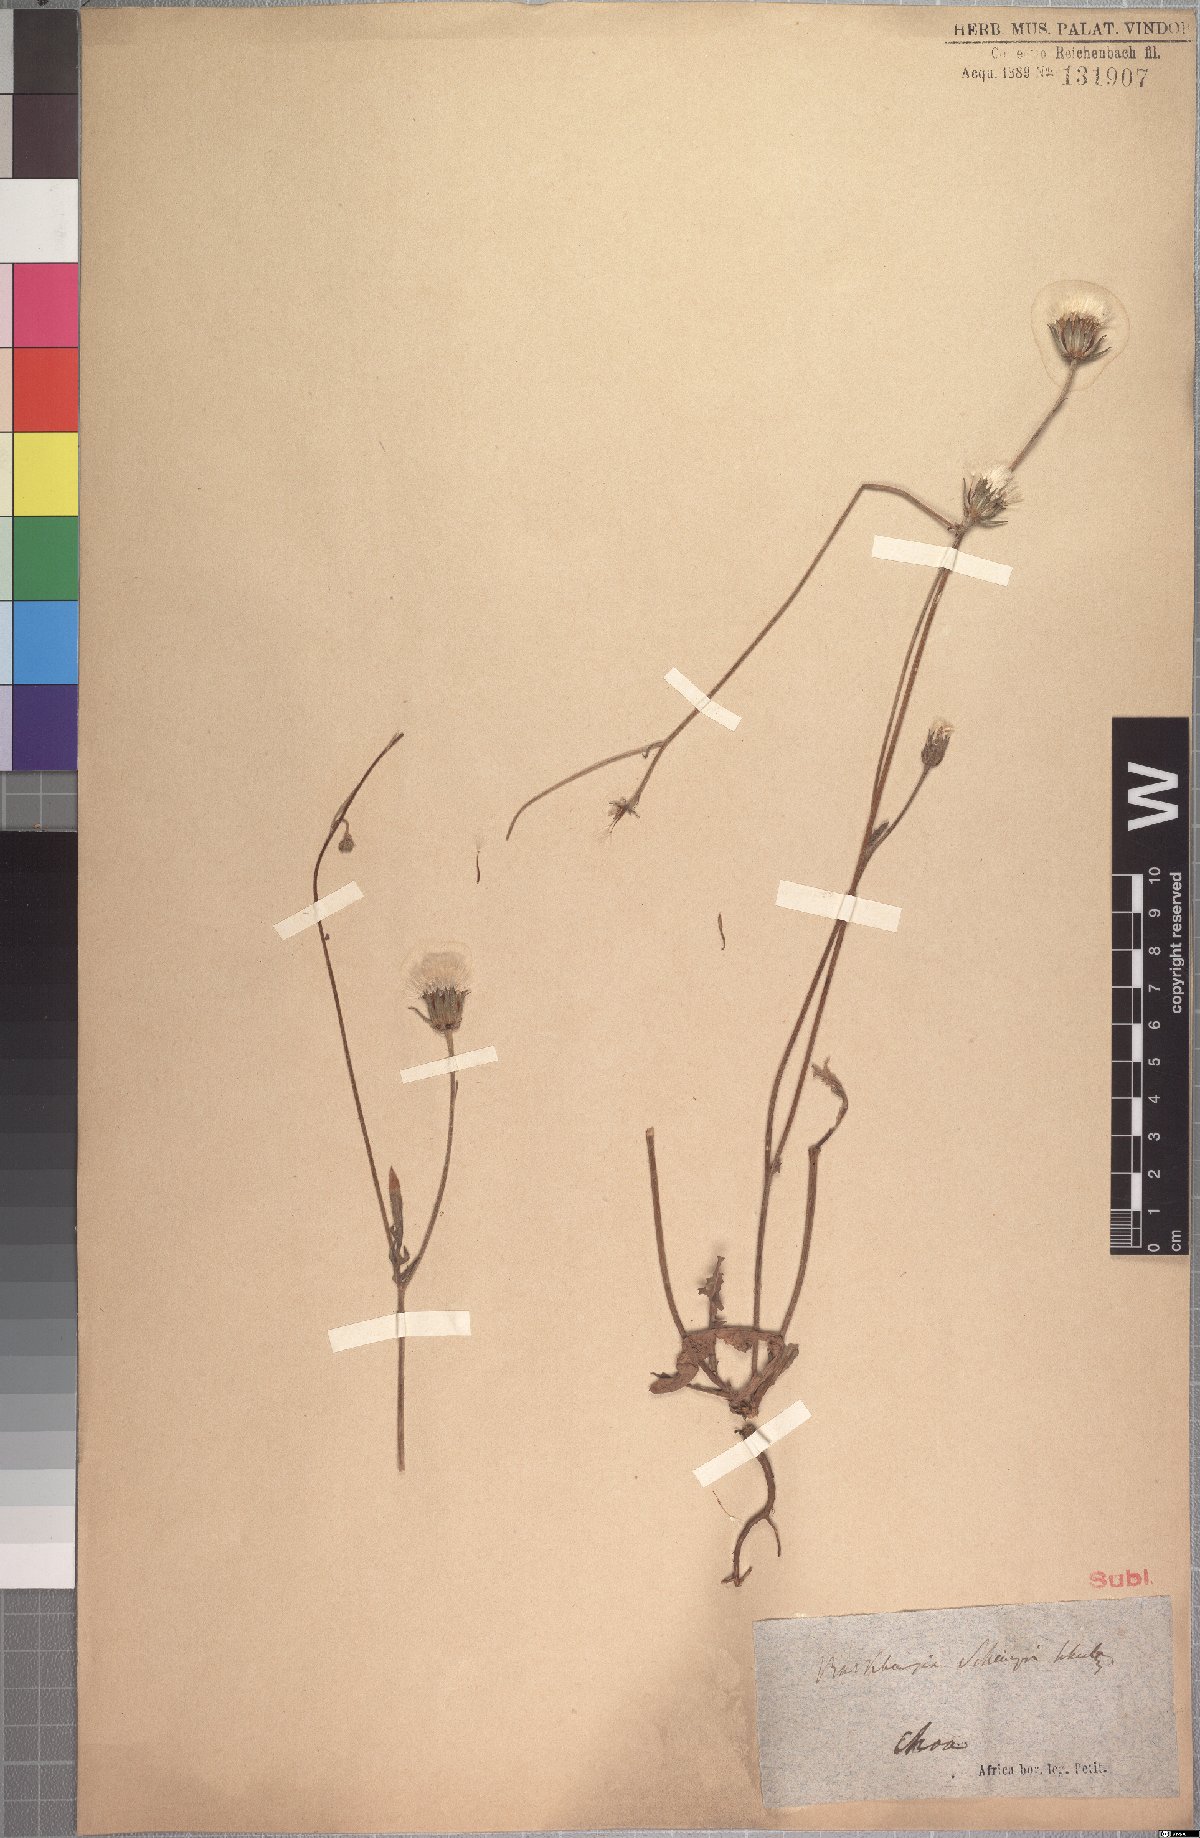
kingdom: Plantae
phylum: Tracheophyta
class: Magnoliopsida
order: Asterales
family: Asteraceae
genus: Crepis
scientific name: Crepis foetida
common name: Stinking hawk's-beard
